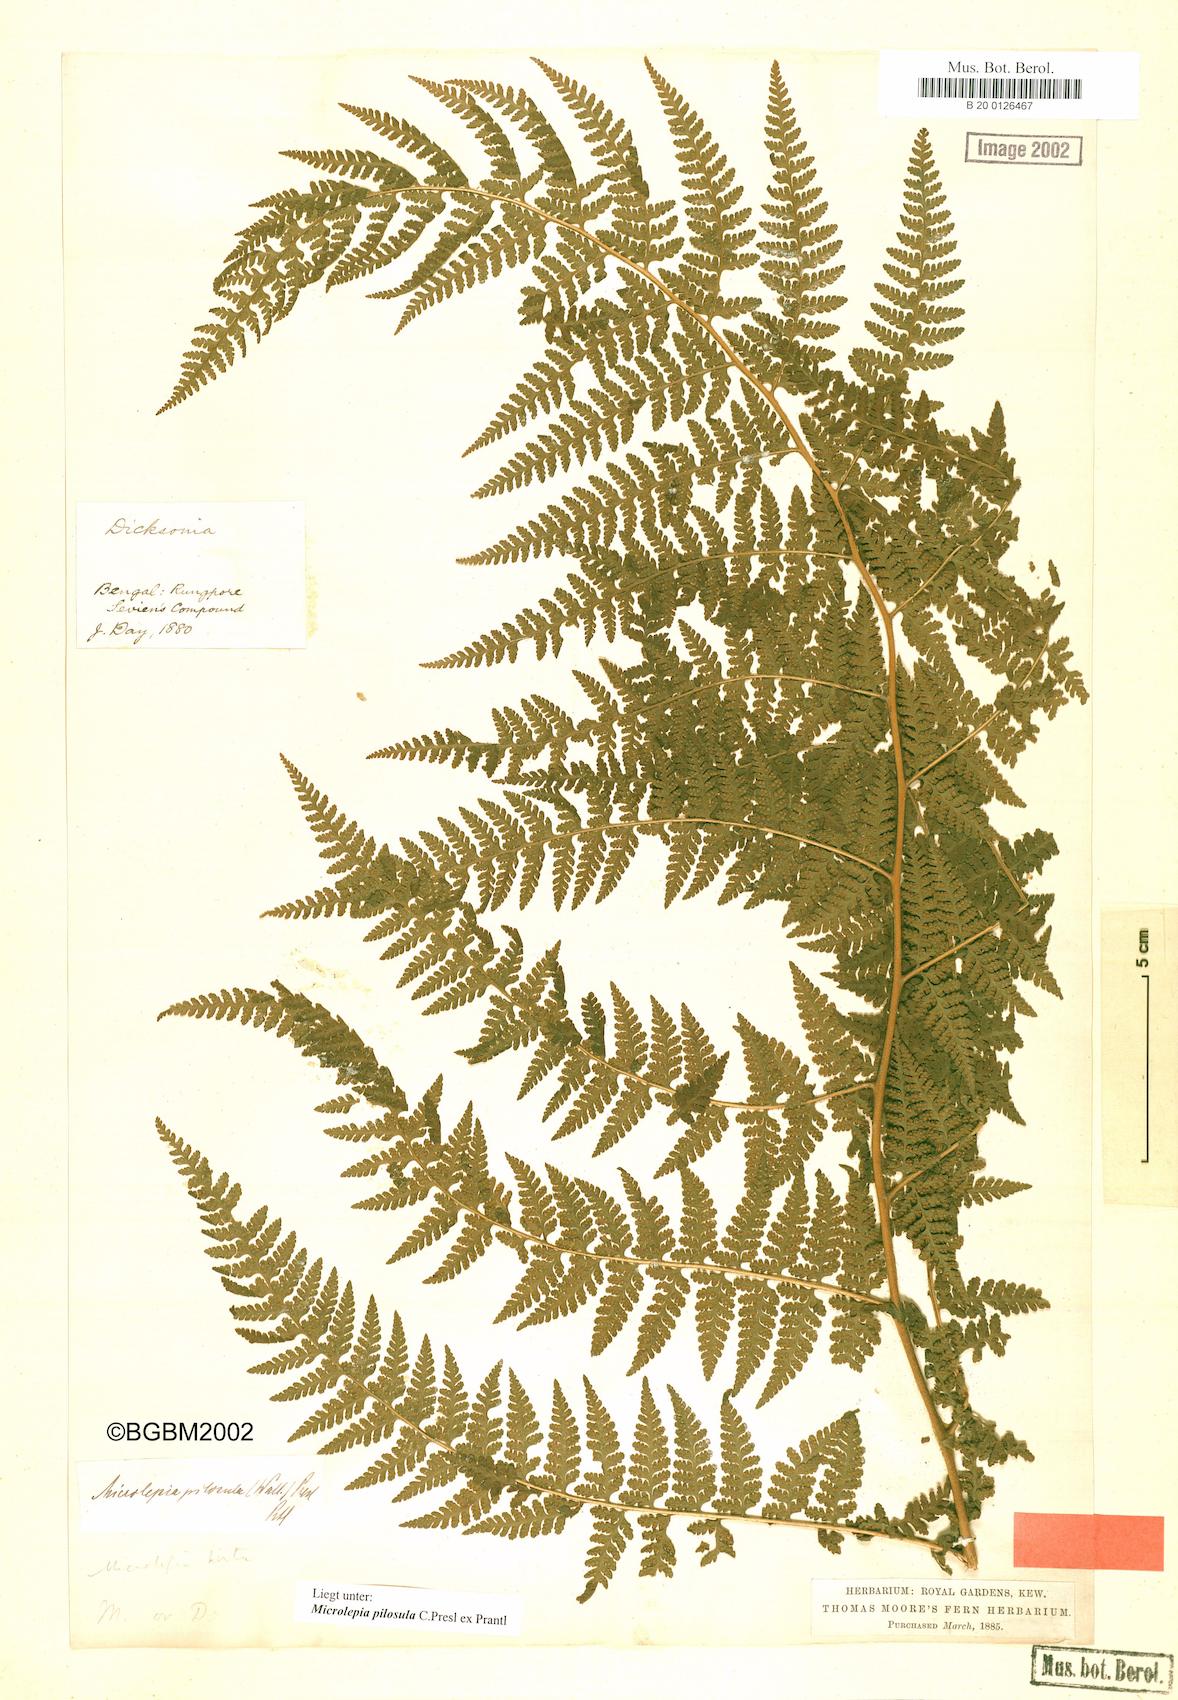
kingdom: Plantae
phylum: Tracheophyta
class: Polypodiopsida
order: Polypodiales
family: Dennstaedtiaceae
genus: Microlepia
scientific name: Microlepia speluncae
